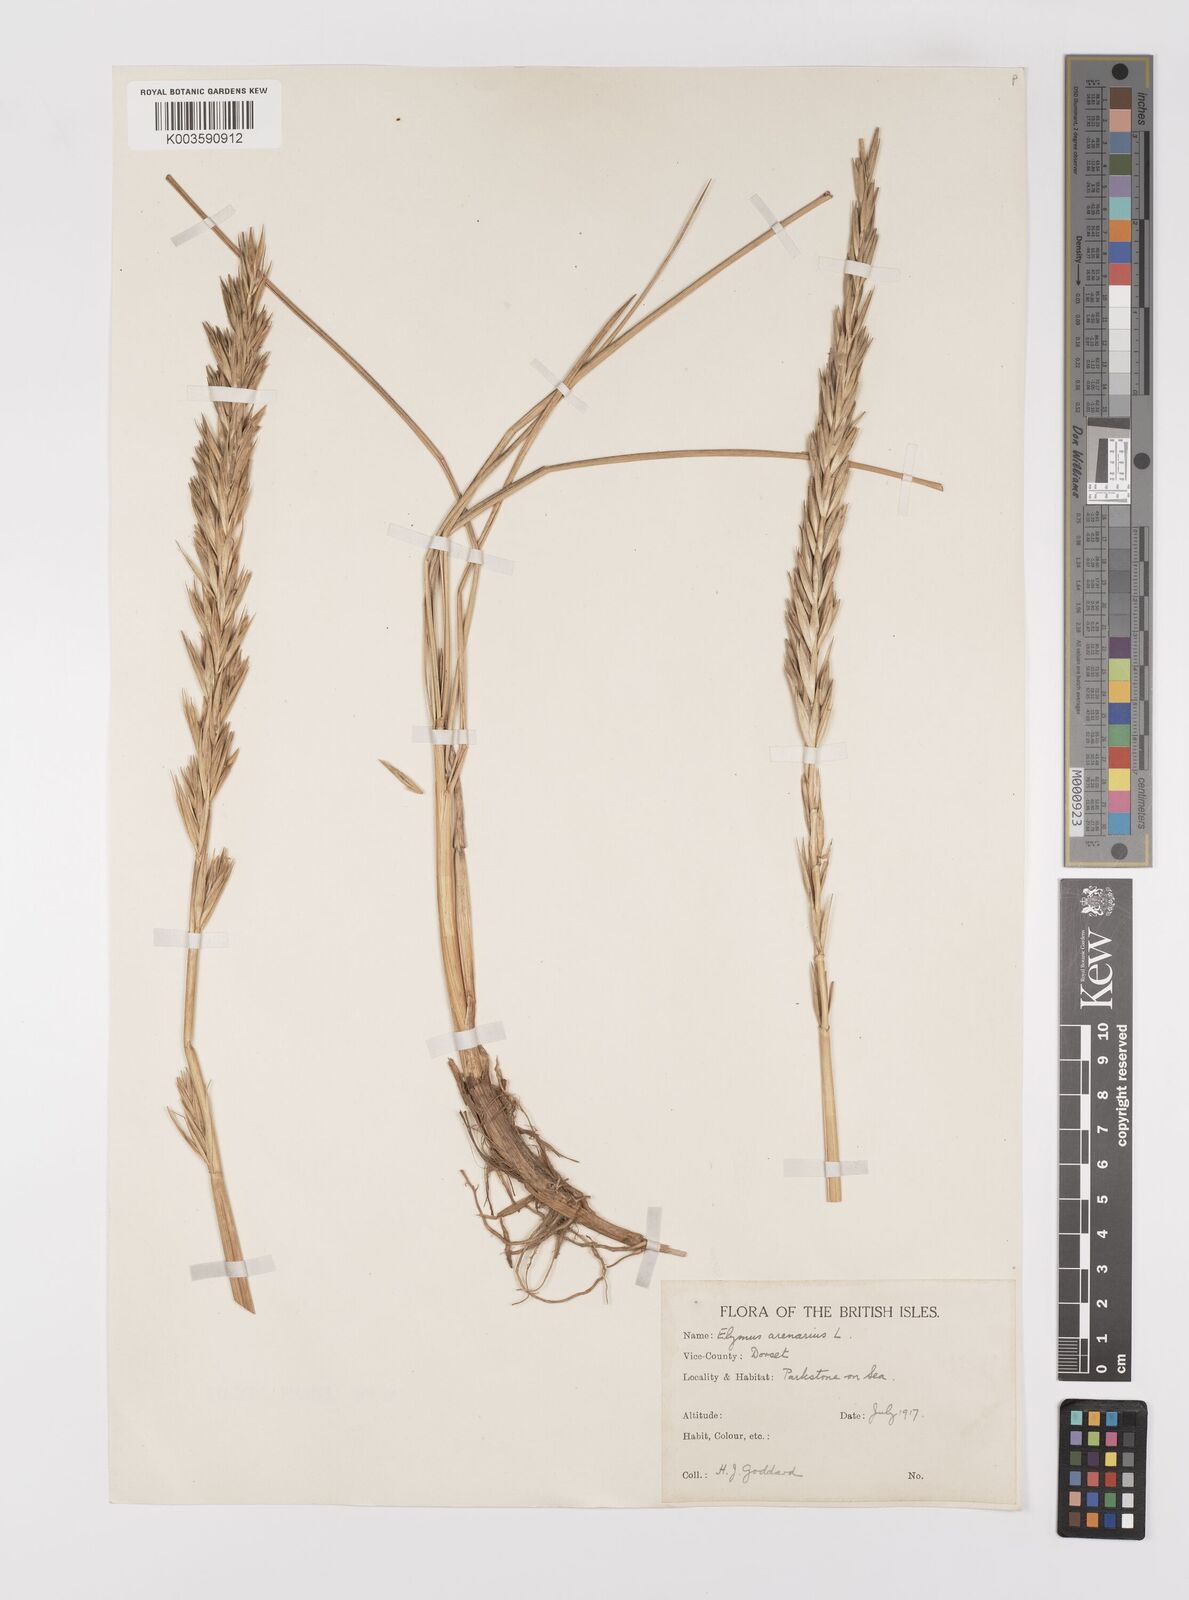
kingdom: Plantae
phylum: Tracheophyta
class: Liliopsida
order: Poales
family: Poaceae
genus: Leymus
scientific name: Leymus arenarius
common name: Lyme-grass
